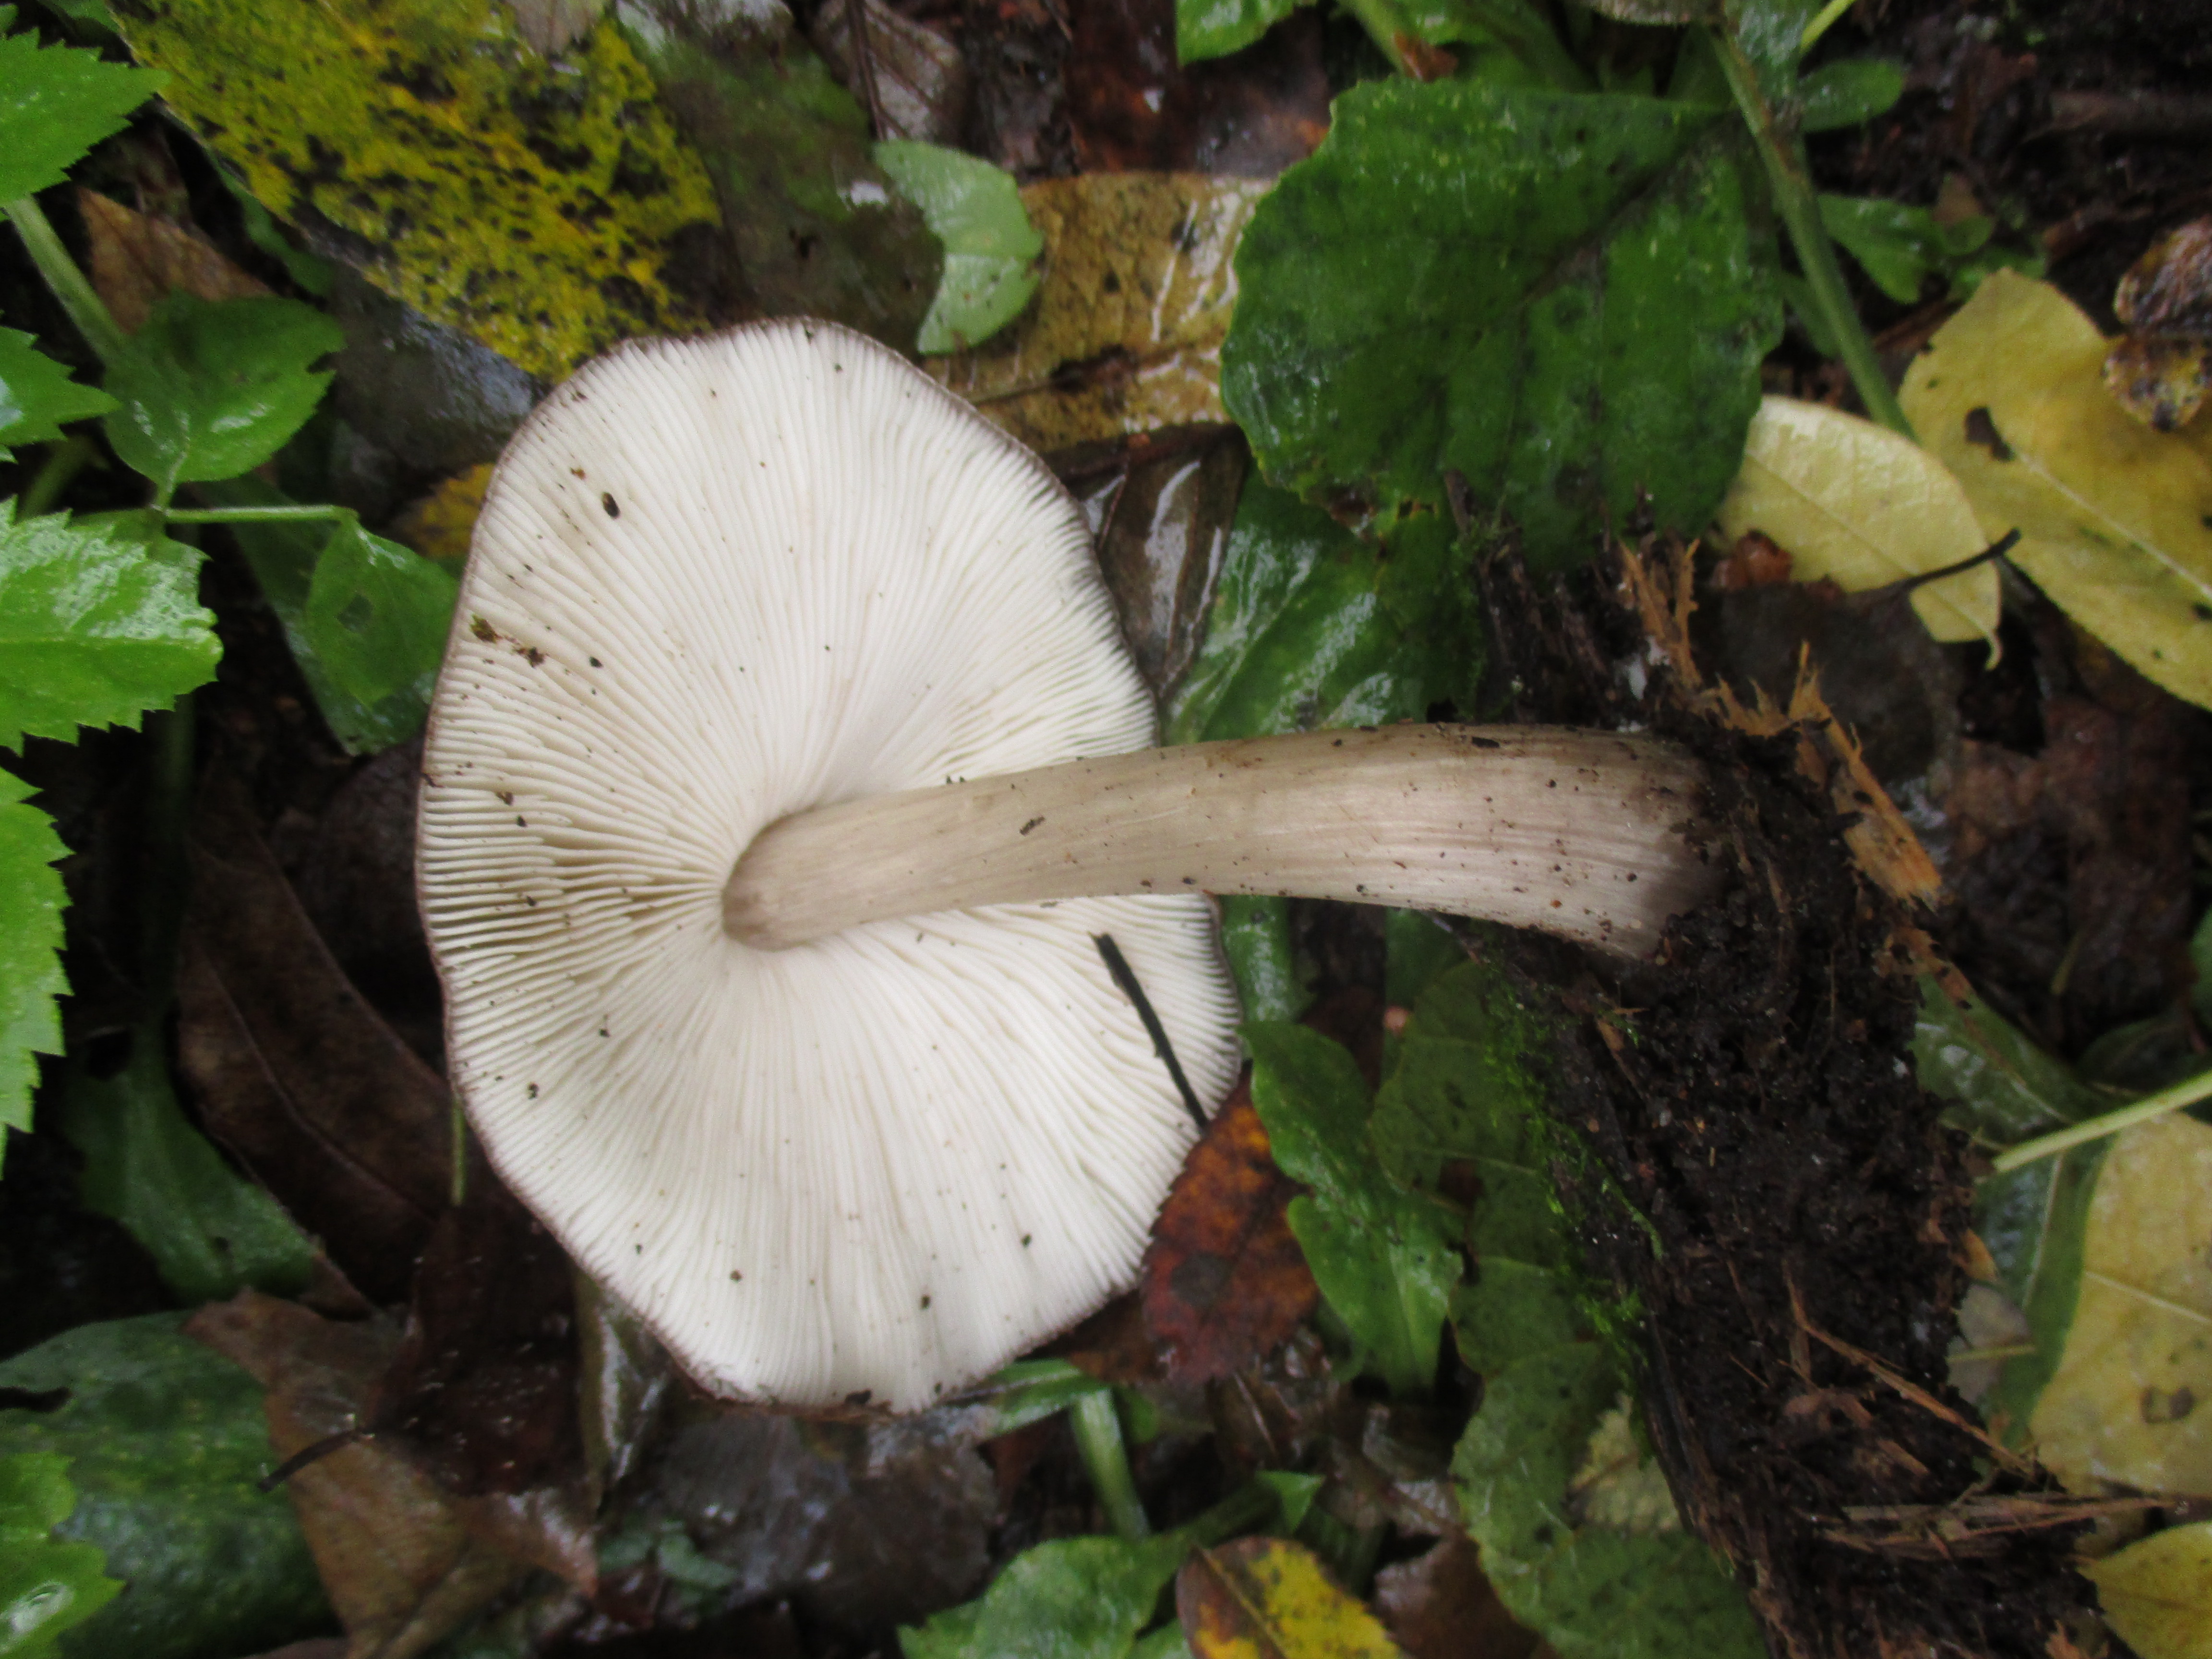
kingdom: Fungi
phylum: Basidiomycota
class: Agaricomycetes
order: Agaricales
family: Pluteaceae
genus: Pluteus
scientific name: Pluteus cervinus
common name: Deer shield
